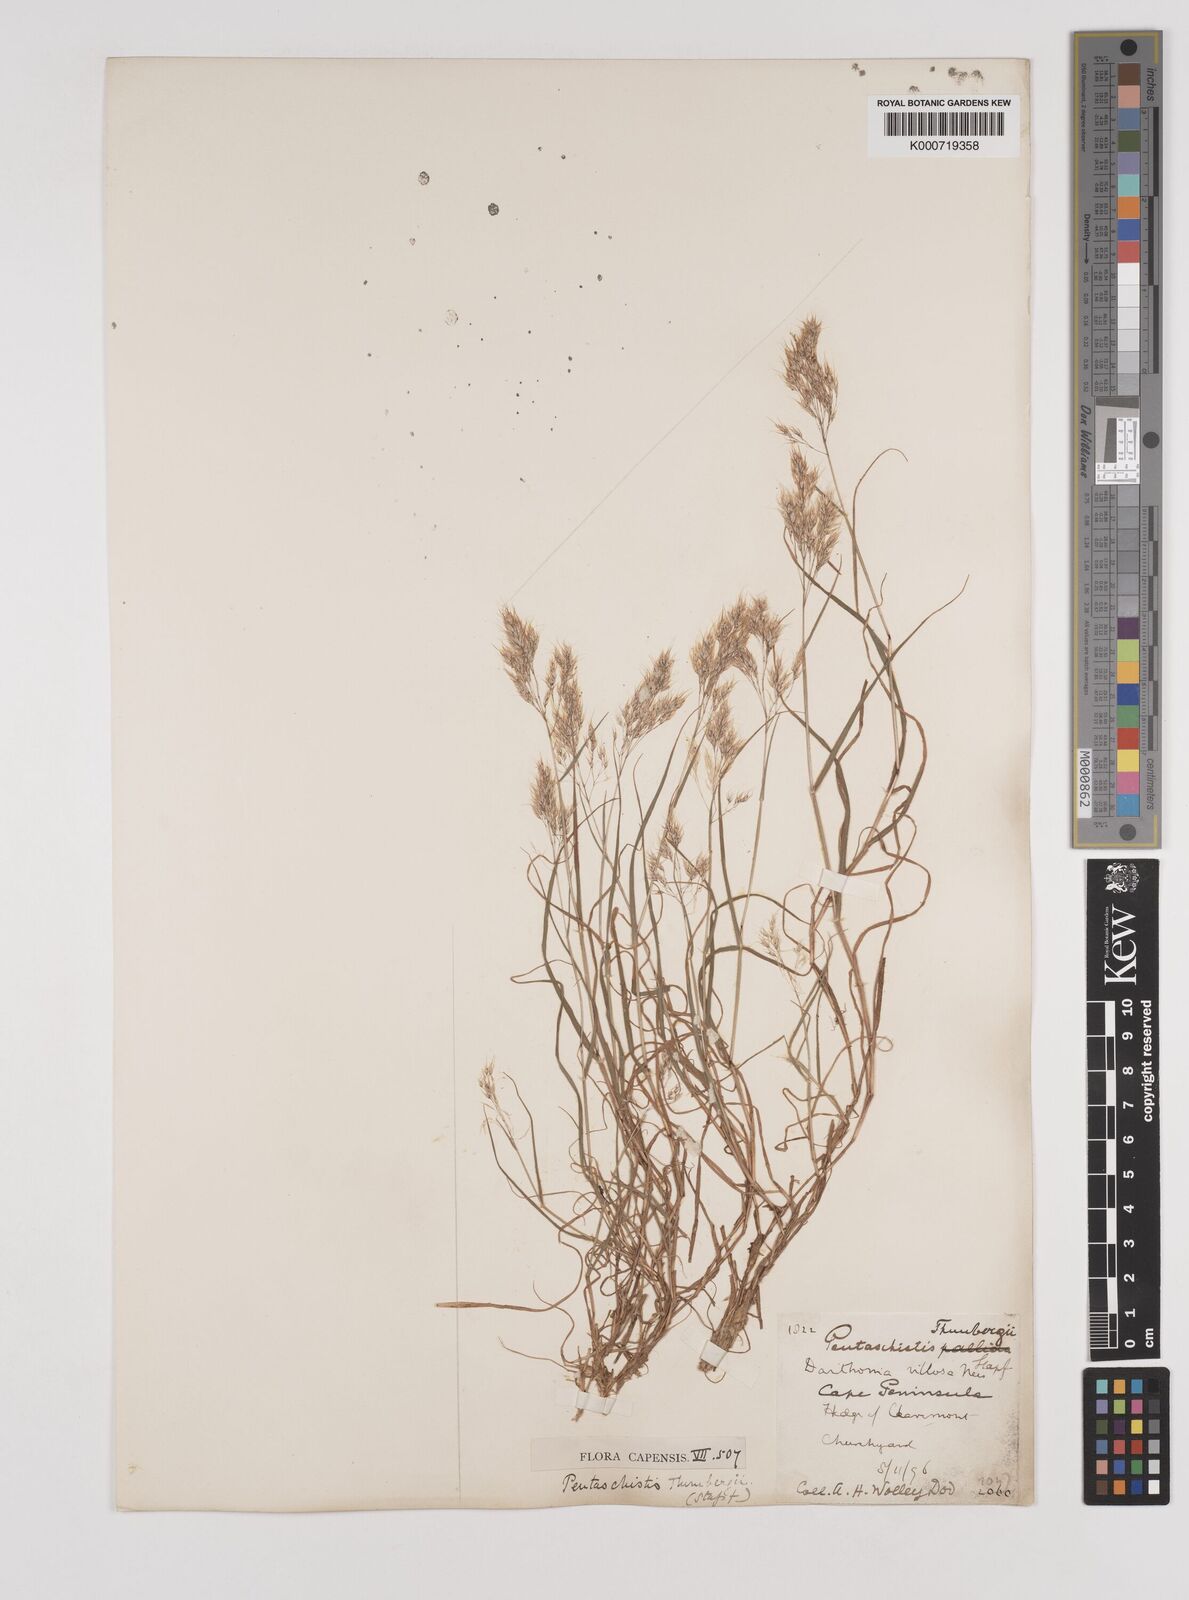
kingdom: Plantae
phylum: Tracheophyta
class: Liliopsida
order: Poales
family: Poaceae
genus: Pentameris
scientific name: Pentameris triseta
